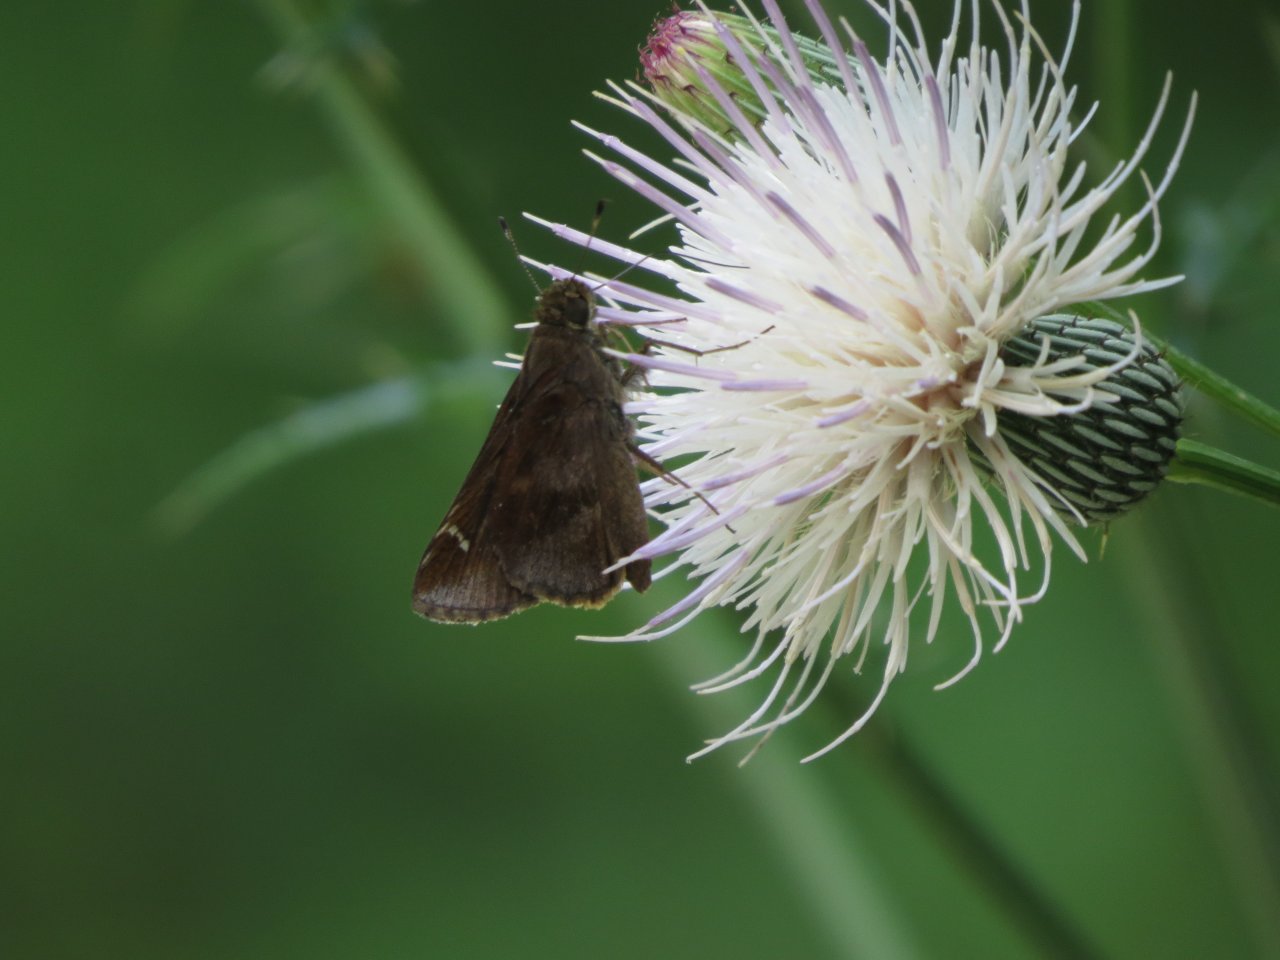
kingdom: Animalia
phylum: Arthropoda
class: Insecta
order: Lepidoptera
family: Hesperiidae
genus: Lerema
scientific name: Lerema accius
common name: Clouded Skipper
